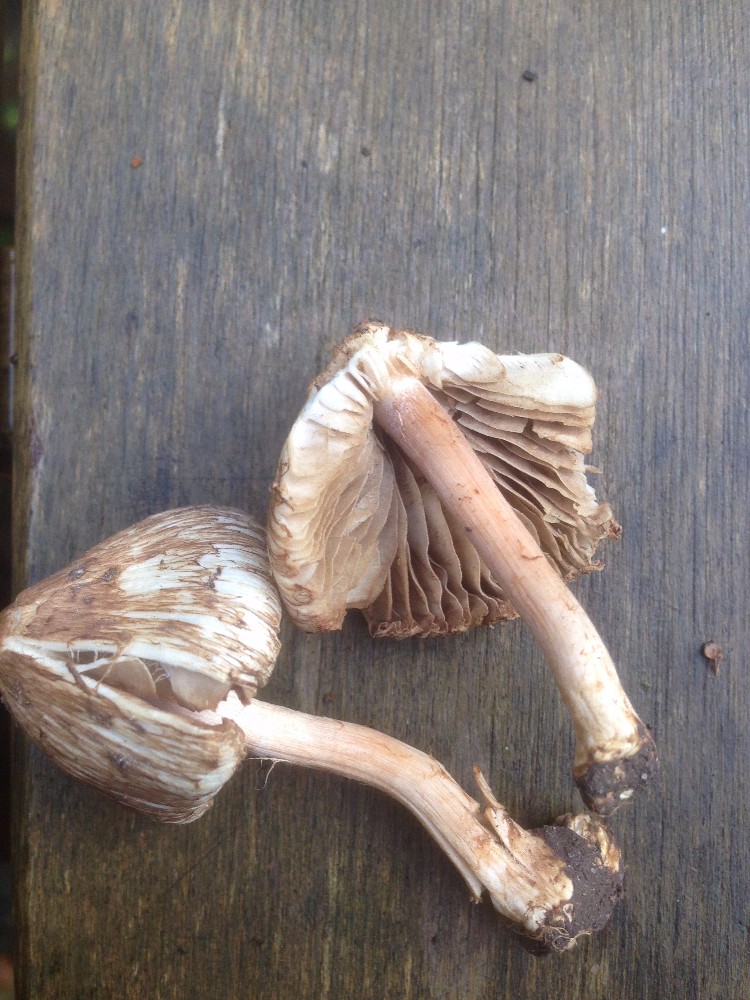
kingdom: Fungi
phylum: Basidiomycota
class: Agaricomycetes
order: Agaricales
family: Inocybaceae
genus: Inocybe
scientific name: Inocybe
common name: trævlhat
